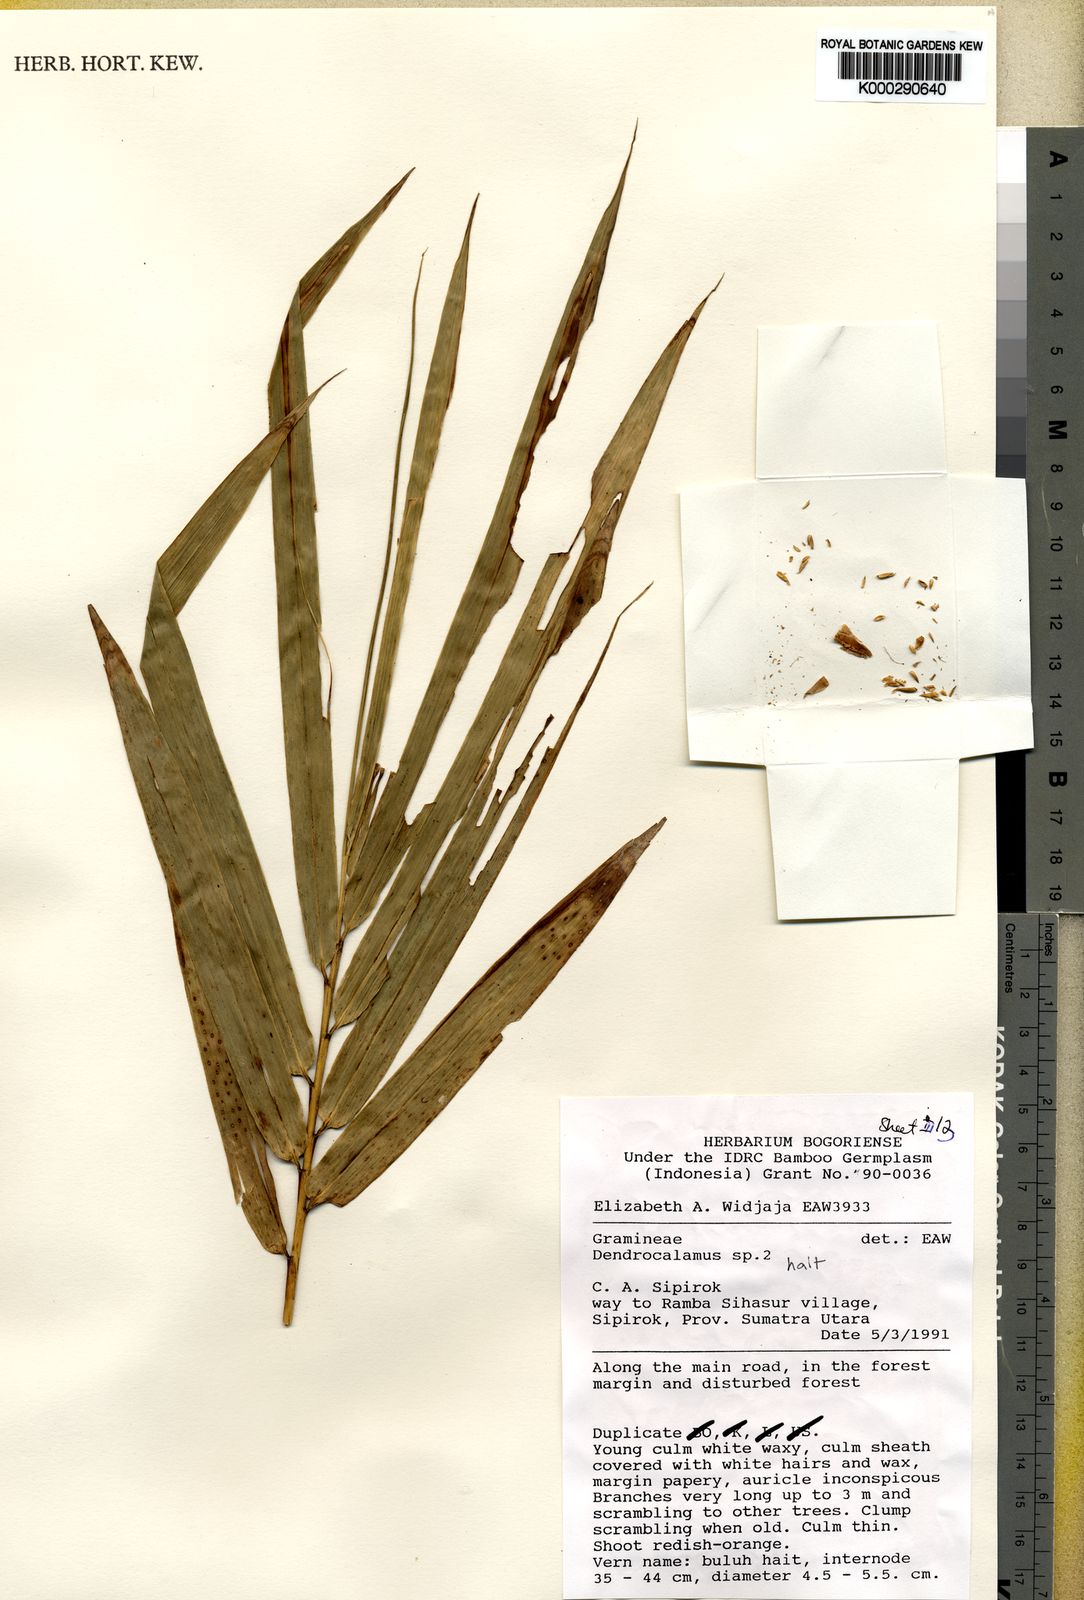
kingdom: Plantae
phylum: Tracheophyta
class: Liliopsida
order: Poales
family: Poaceae
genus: Dendrocalamus
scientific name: Dendrocalamus hait
